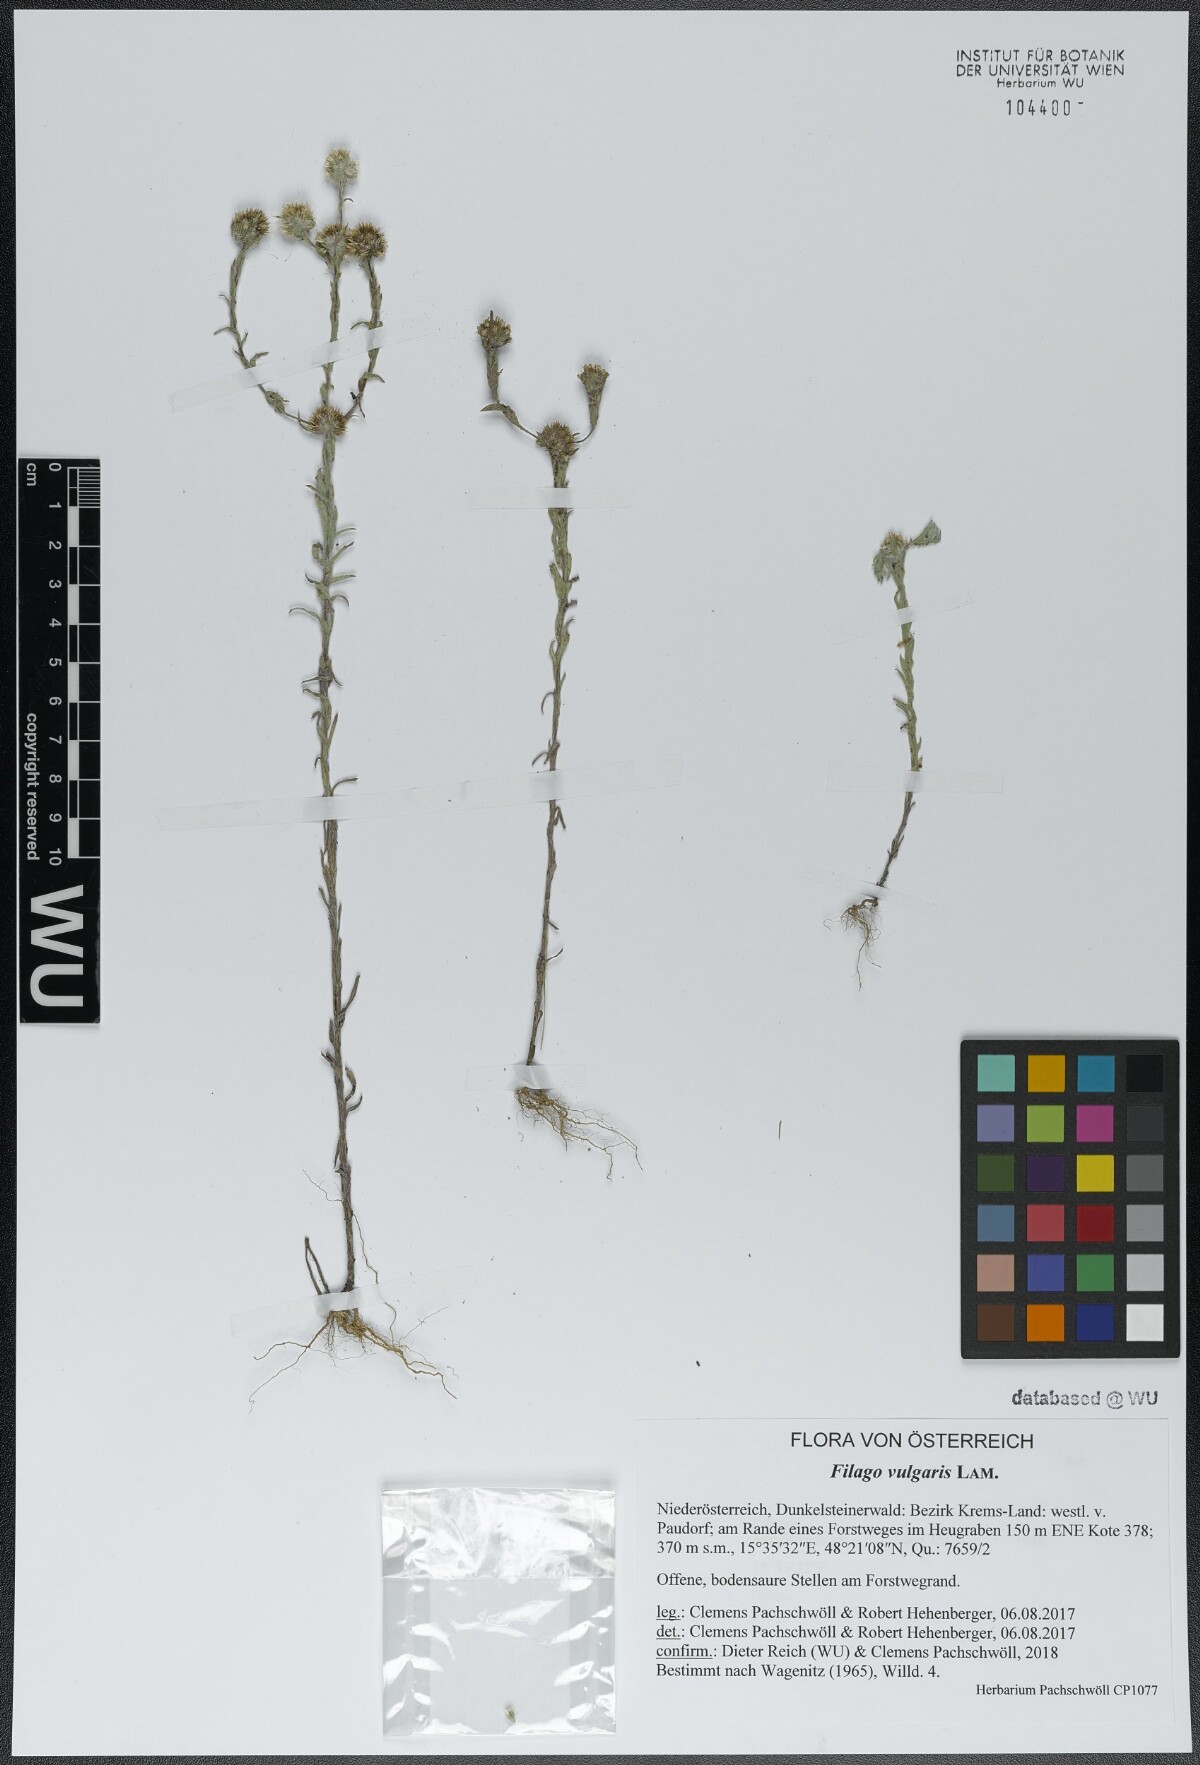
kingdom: Plantae
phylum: Tracheophyta
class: Magnoliopsida
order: Asterales
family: Asteraceae
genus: Filago
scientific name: Filago germanica
